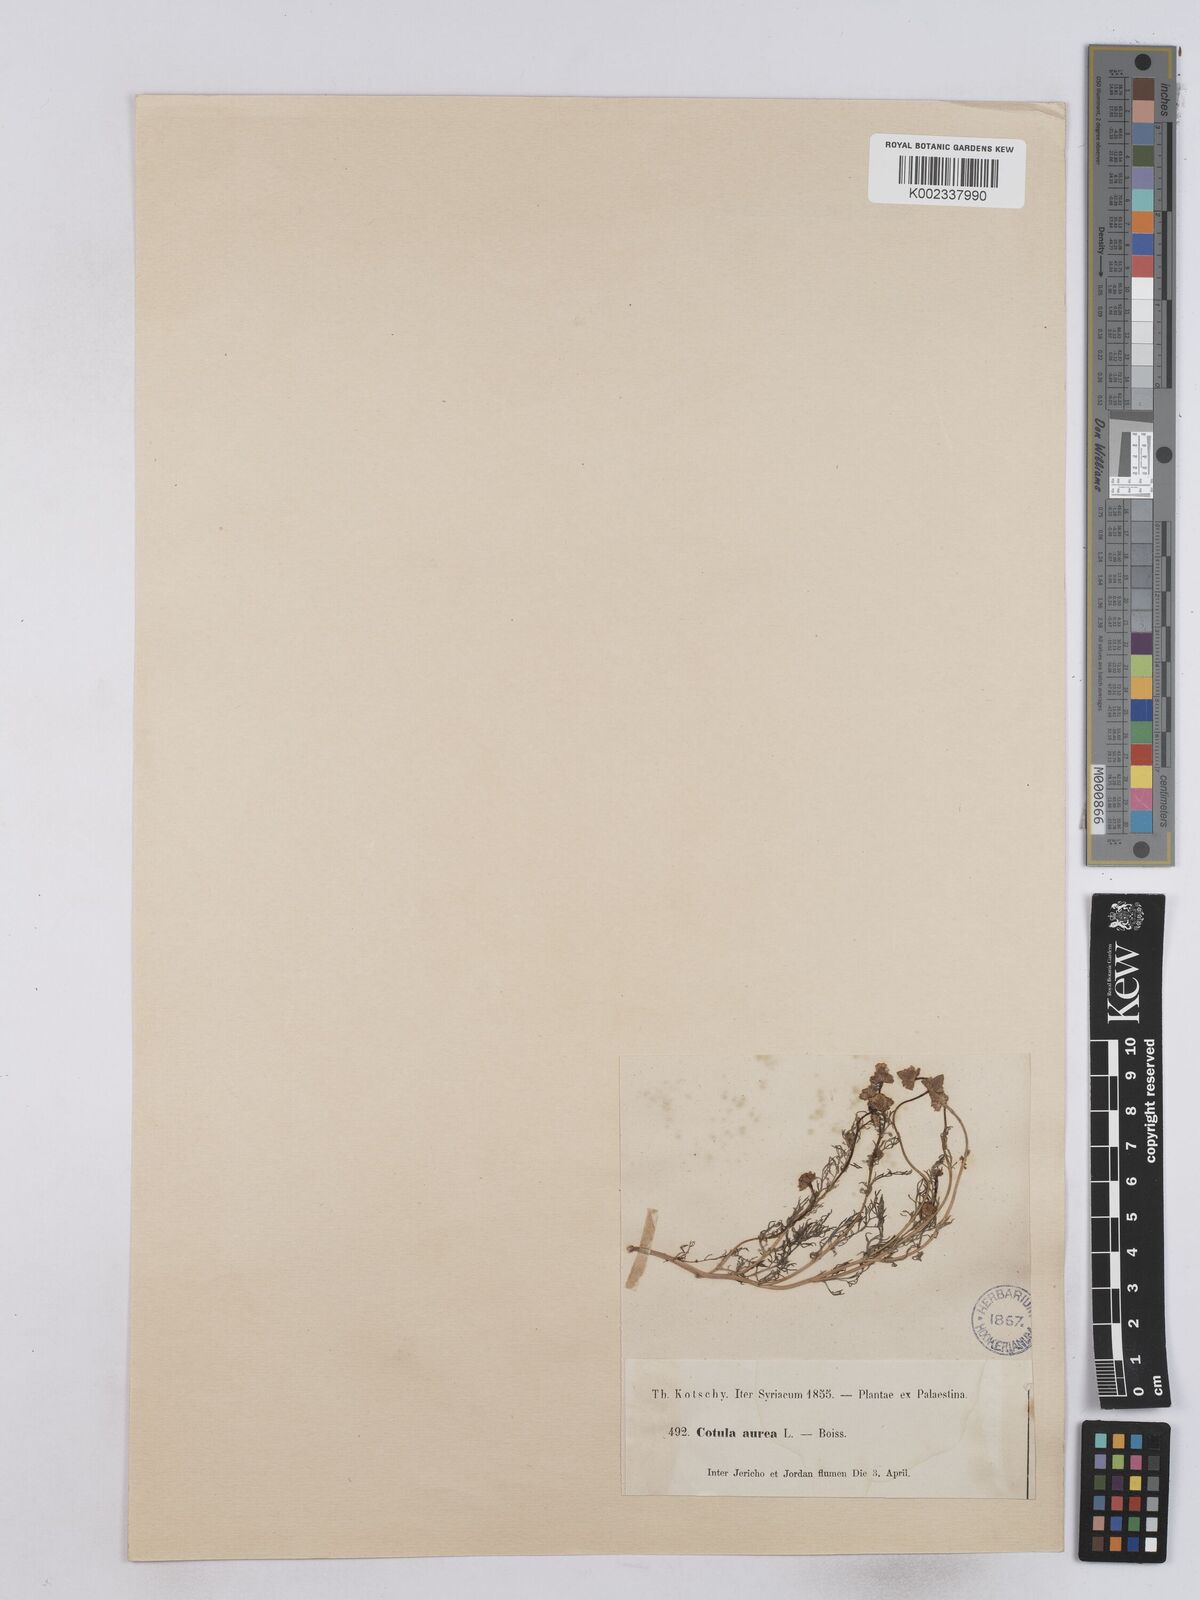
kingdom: Plantae
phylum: Tracheophyta
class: Magnoliopsida
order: Asterales
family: Asteraceae
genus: Matricaria
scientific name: Matricaria aurea
